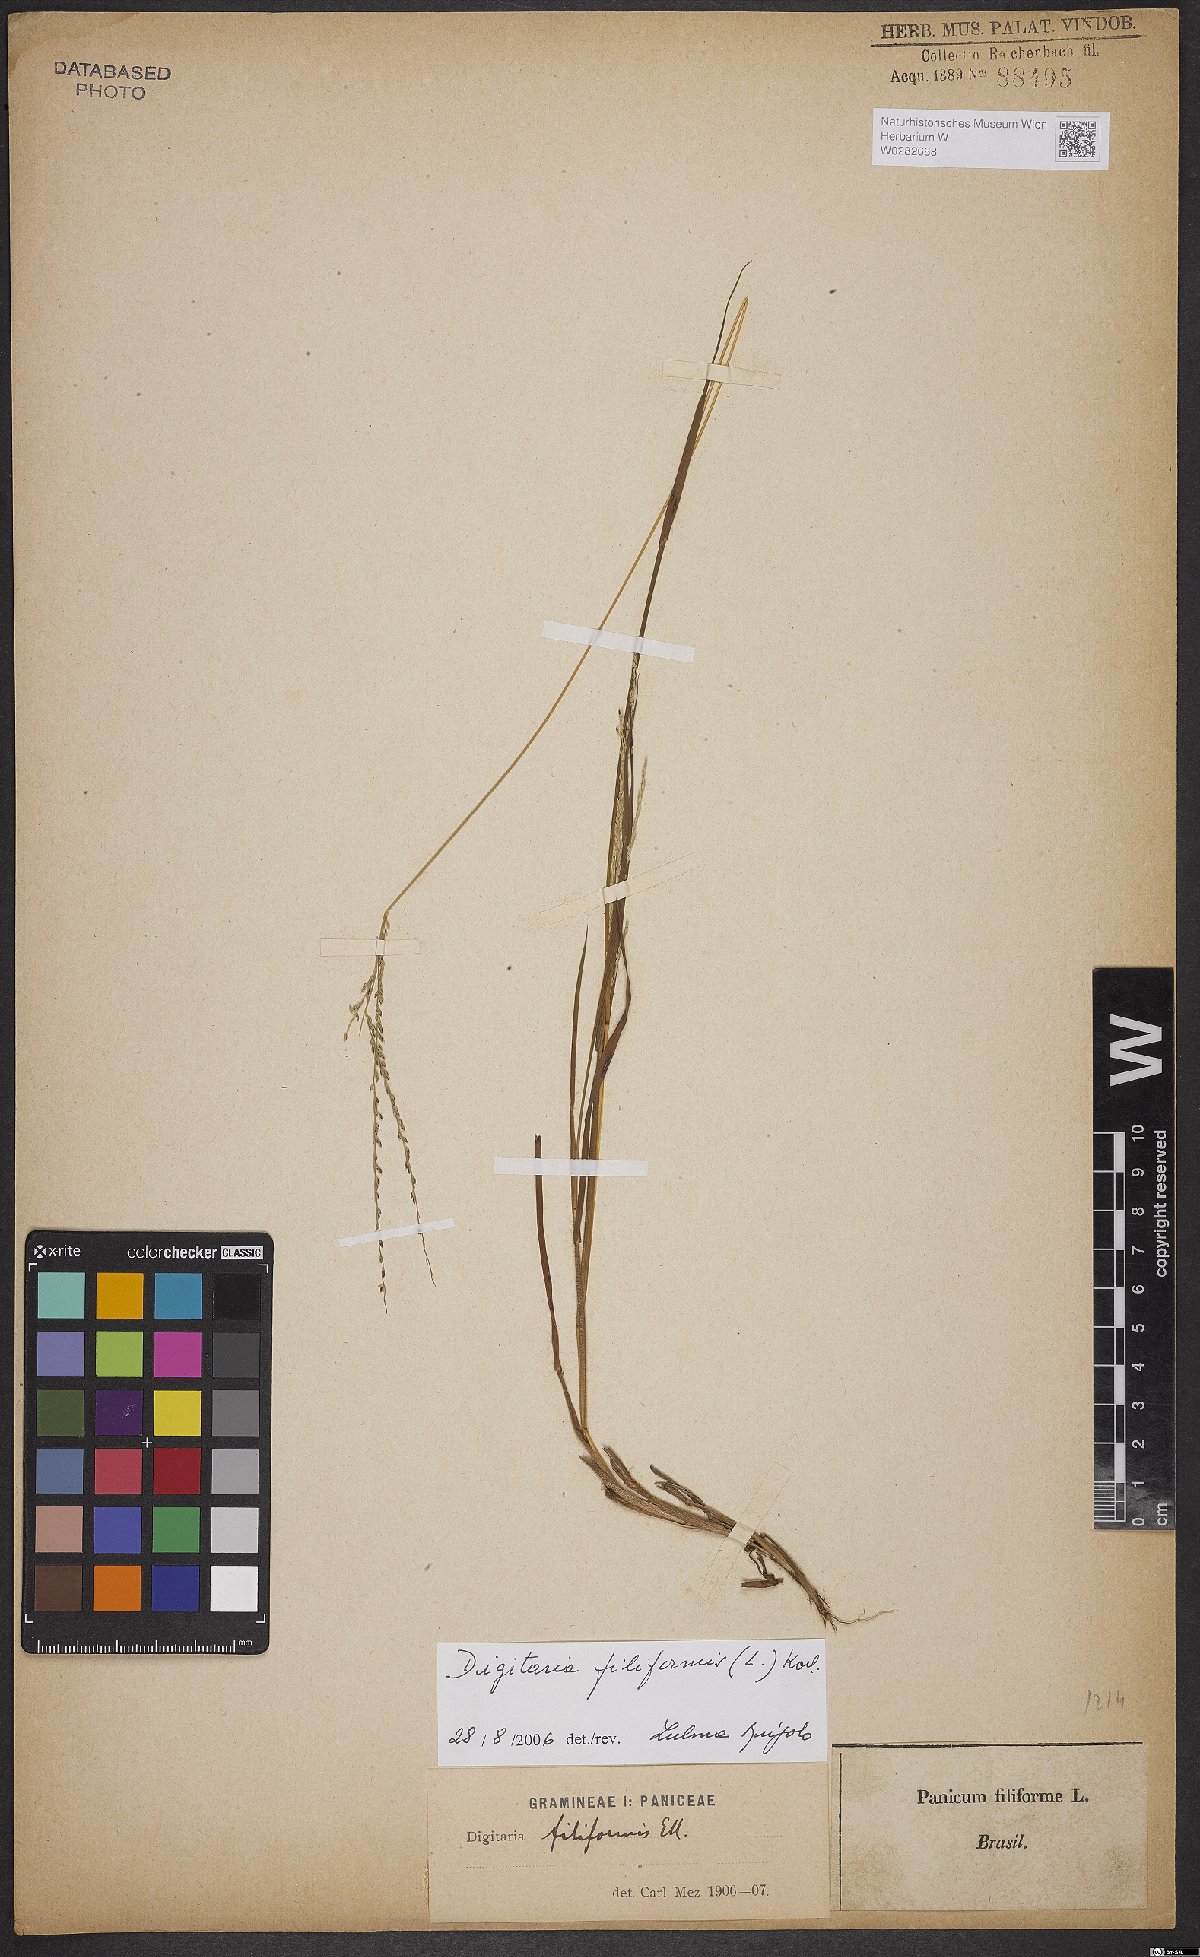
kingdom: Plantae
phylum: Tracheophyta
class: Liliopsida
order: Poales
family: Poaceae
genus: Digitaria
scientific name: Digitaria filiformis
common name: Slender crabgrass
